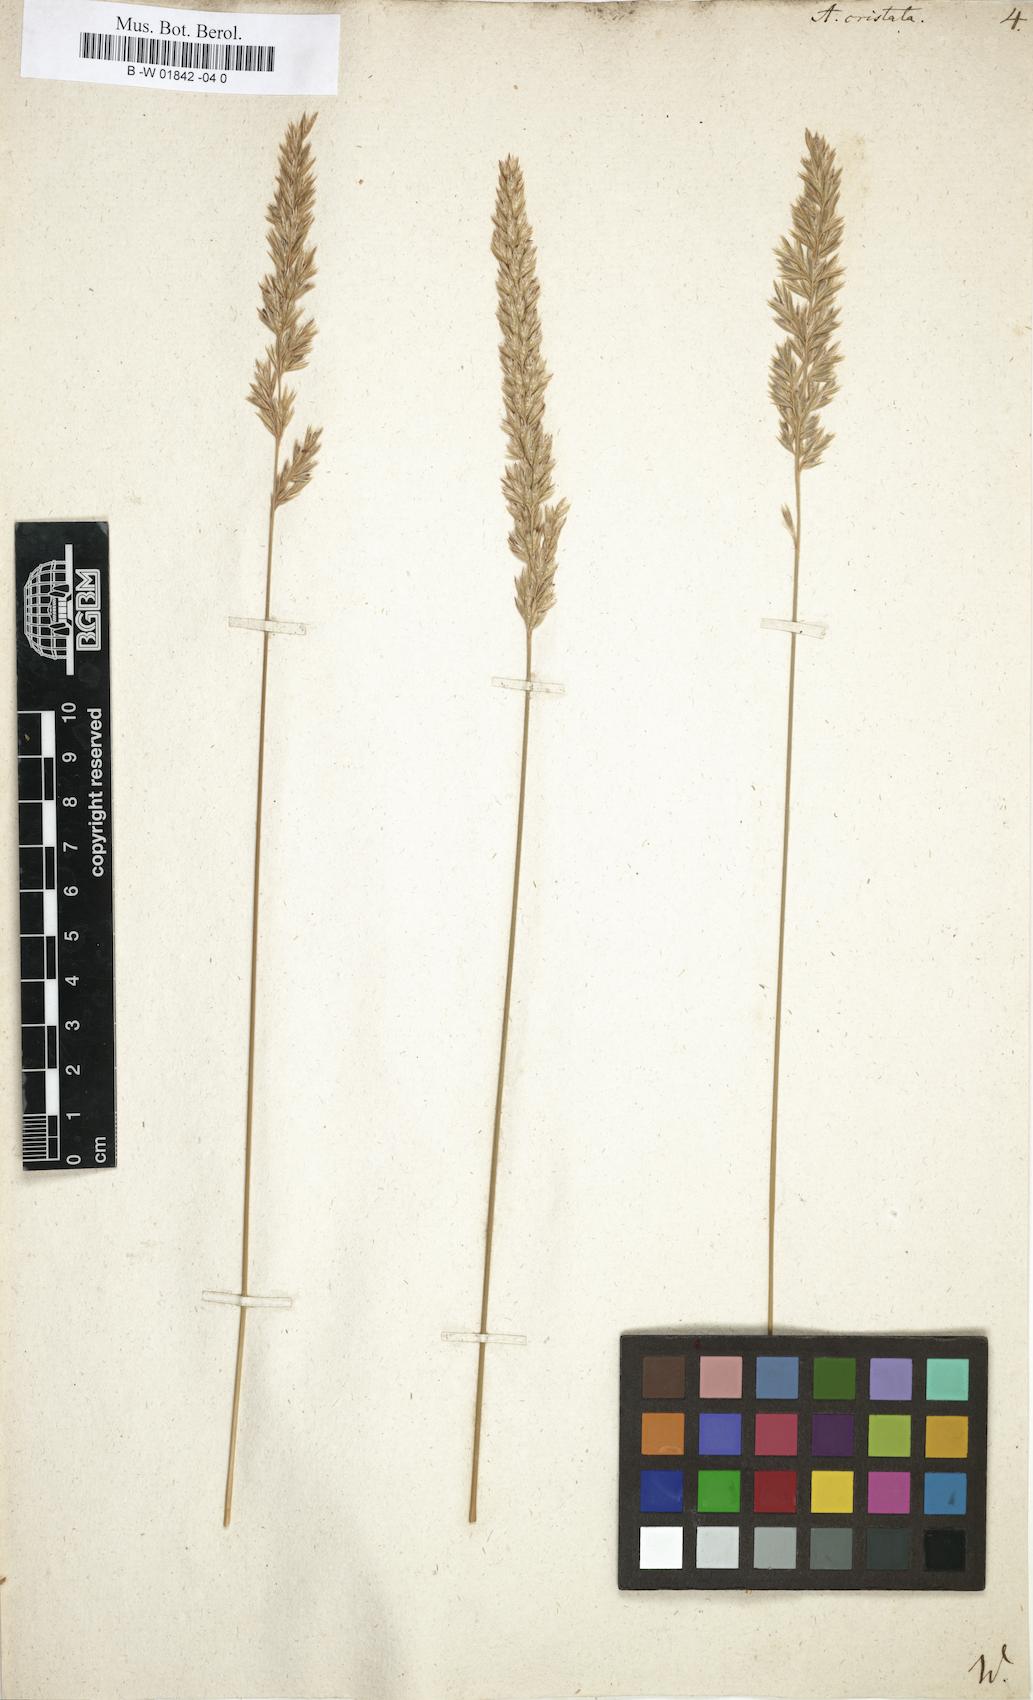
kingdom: Plantae
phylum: Tracheophyta
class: Liliopsida
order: Poales
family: Poaceae
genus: Koeleria
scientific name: Koeleria macrantha
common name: Crested hair-grass
